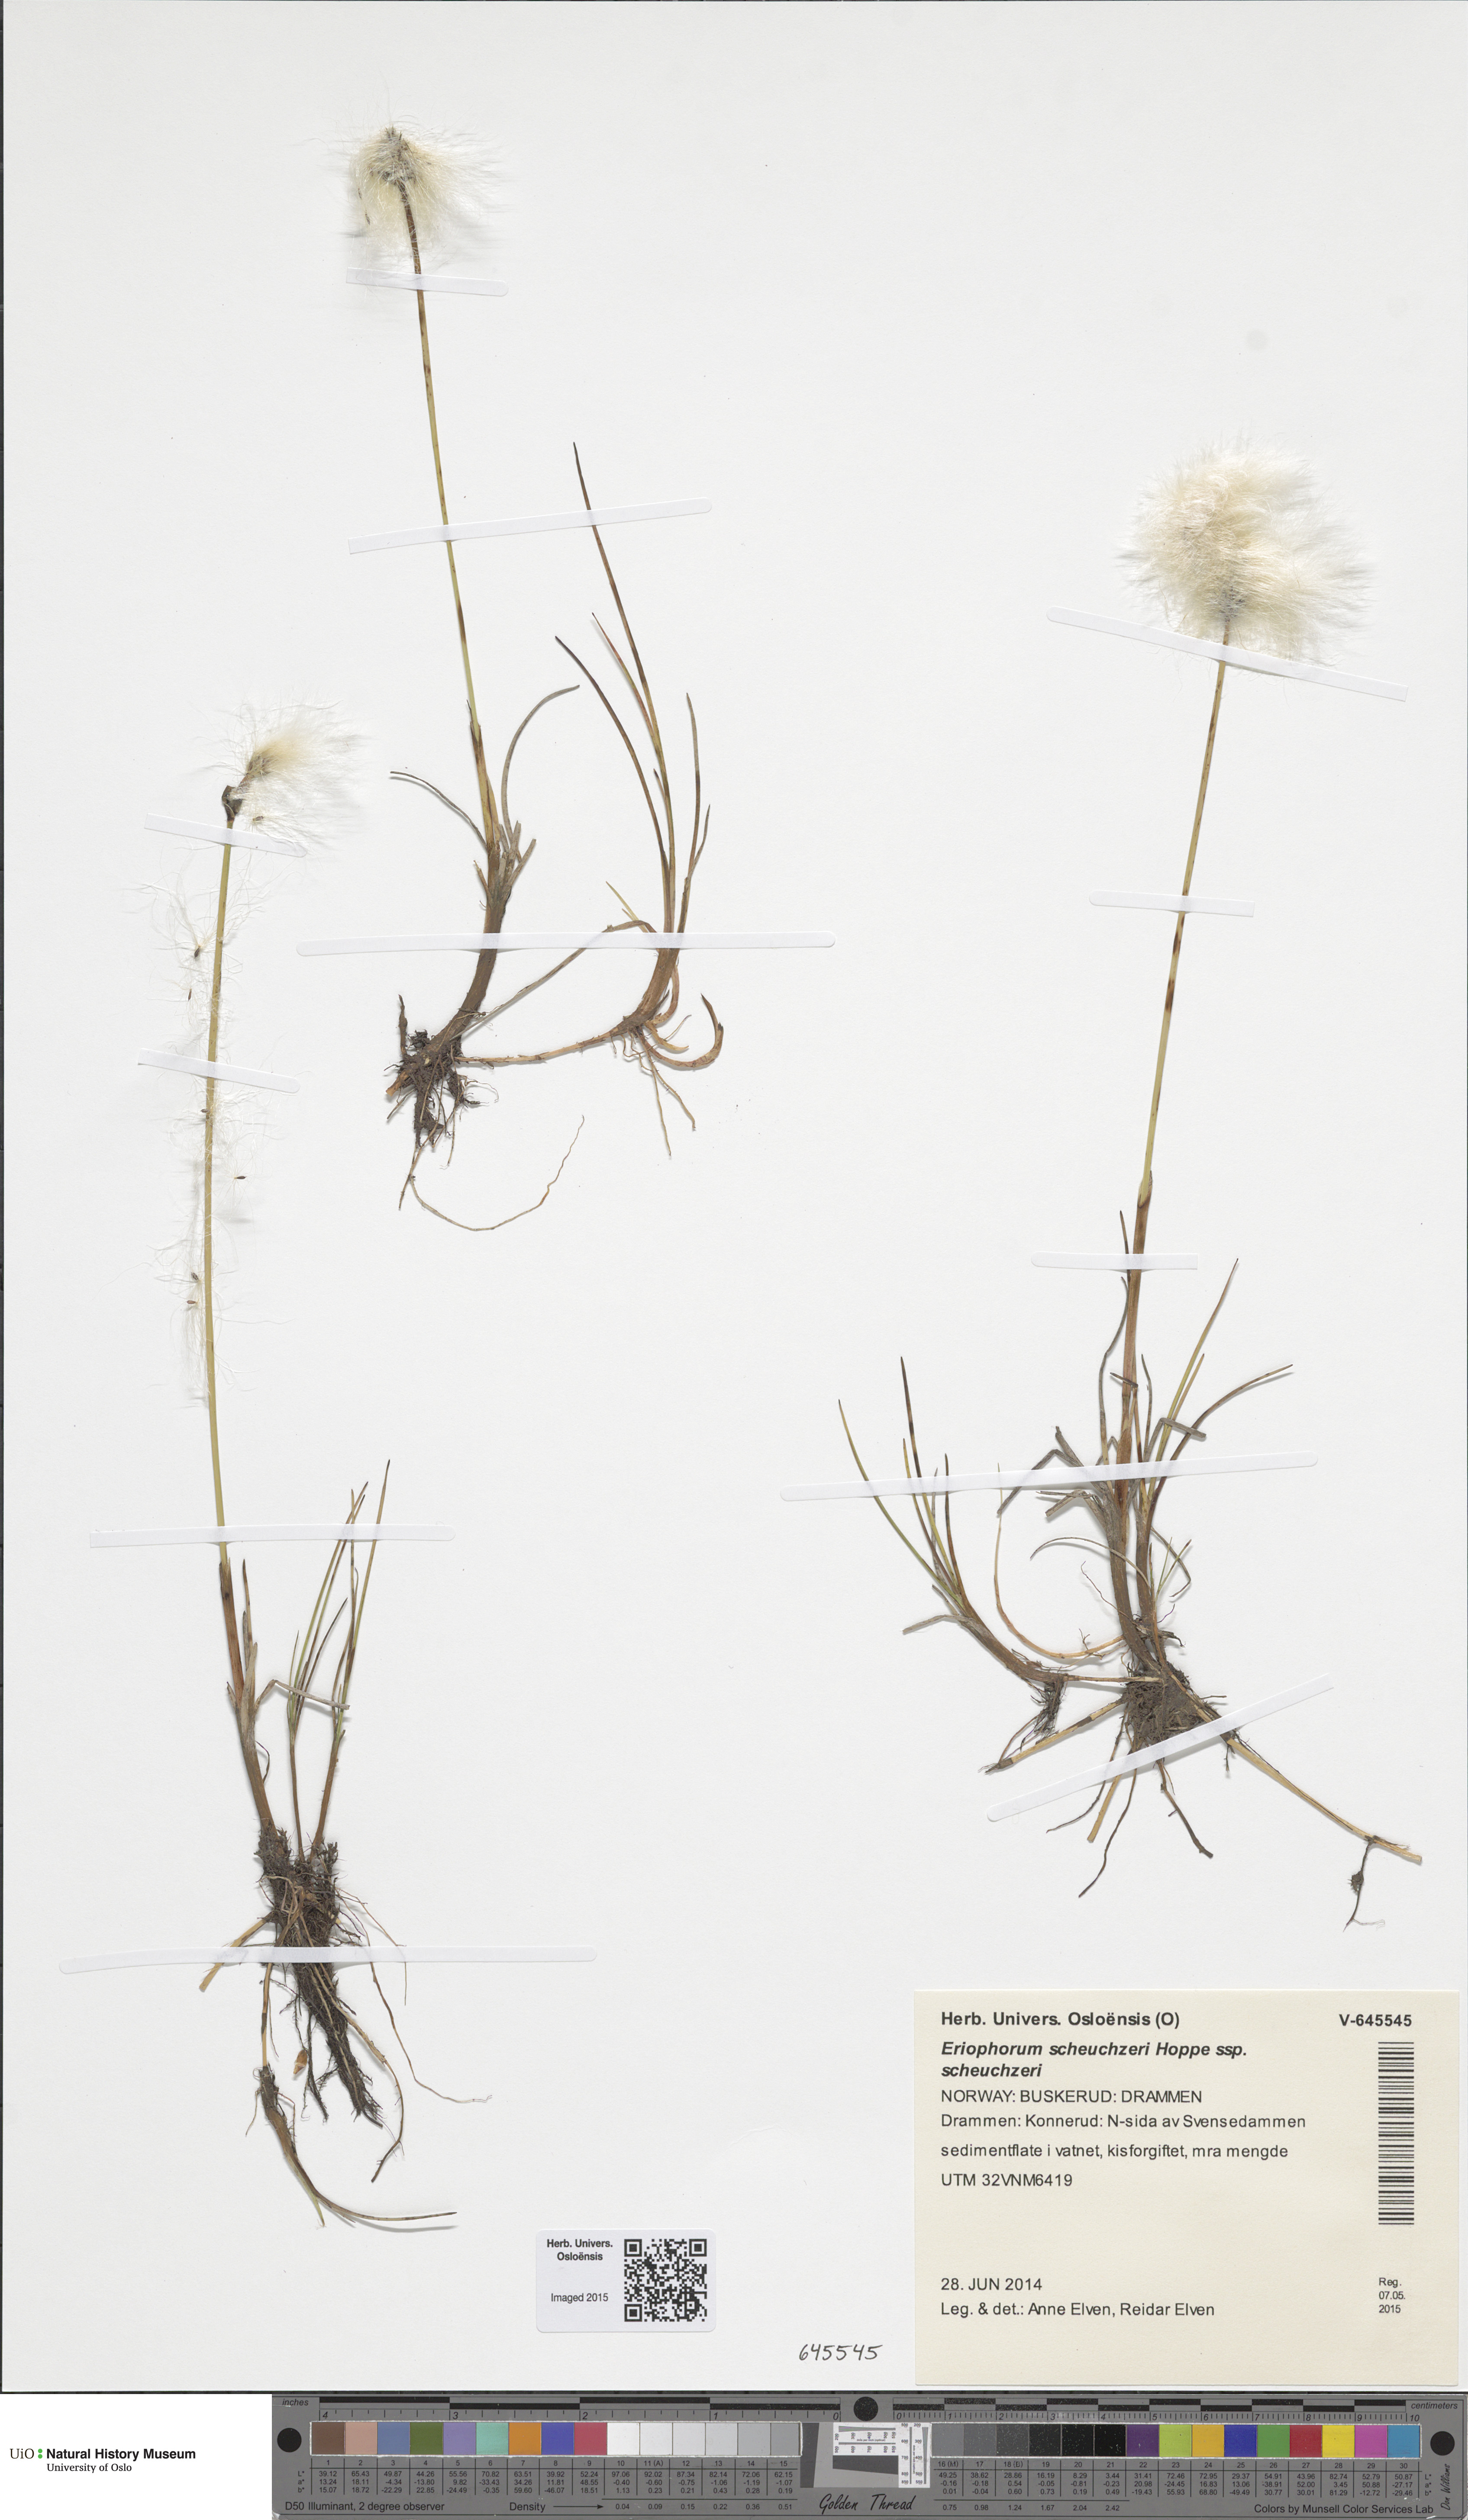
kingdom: Plantae
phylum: Tracheophyta
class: Liliopsida
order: Poales
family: Cyperaceae
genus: Eriophorum
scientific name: Eriophorum scheuchzeri
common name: Scheuchzer's cottongrass
